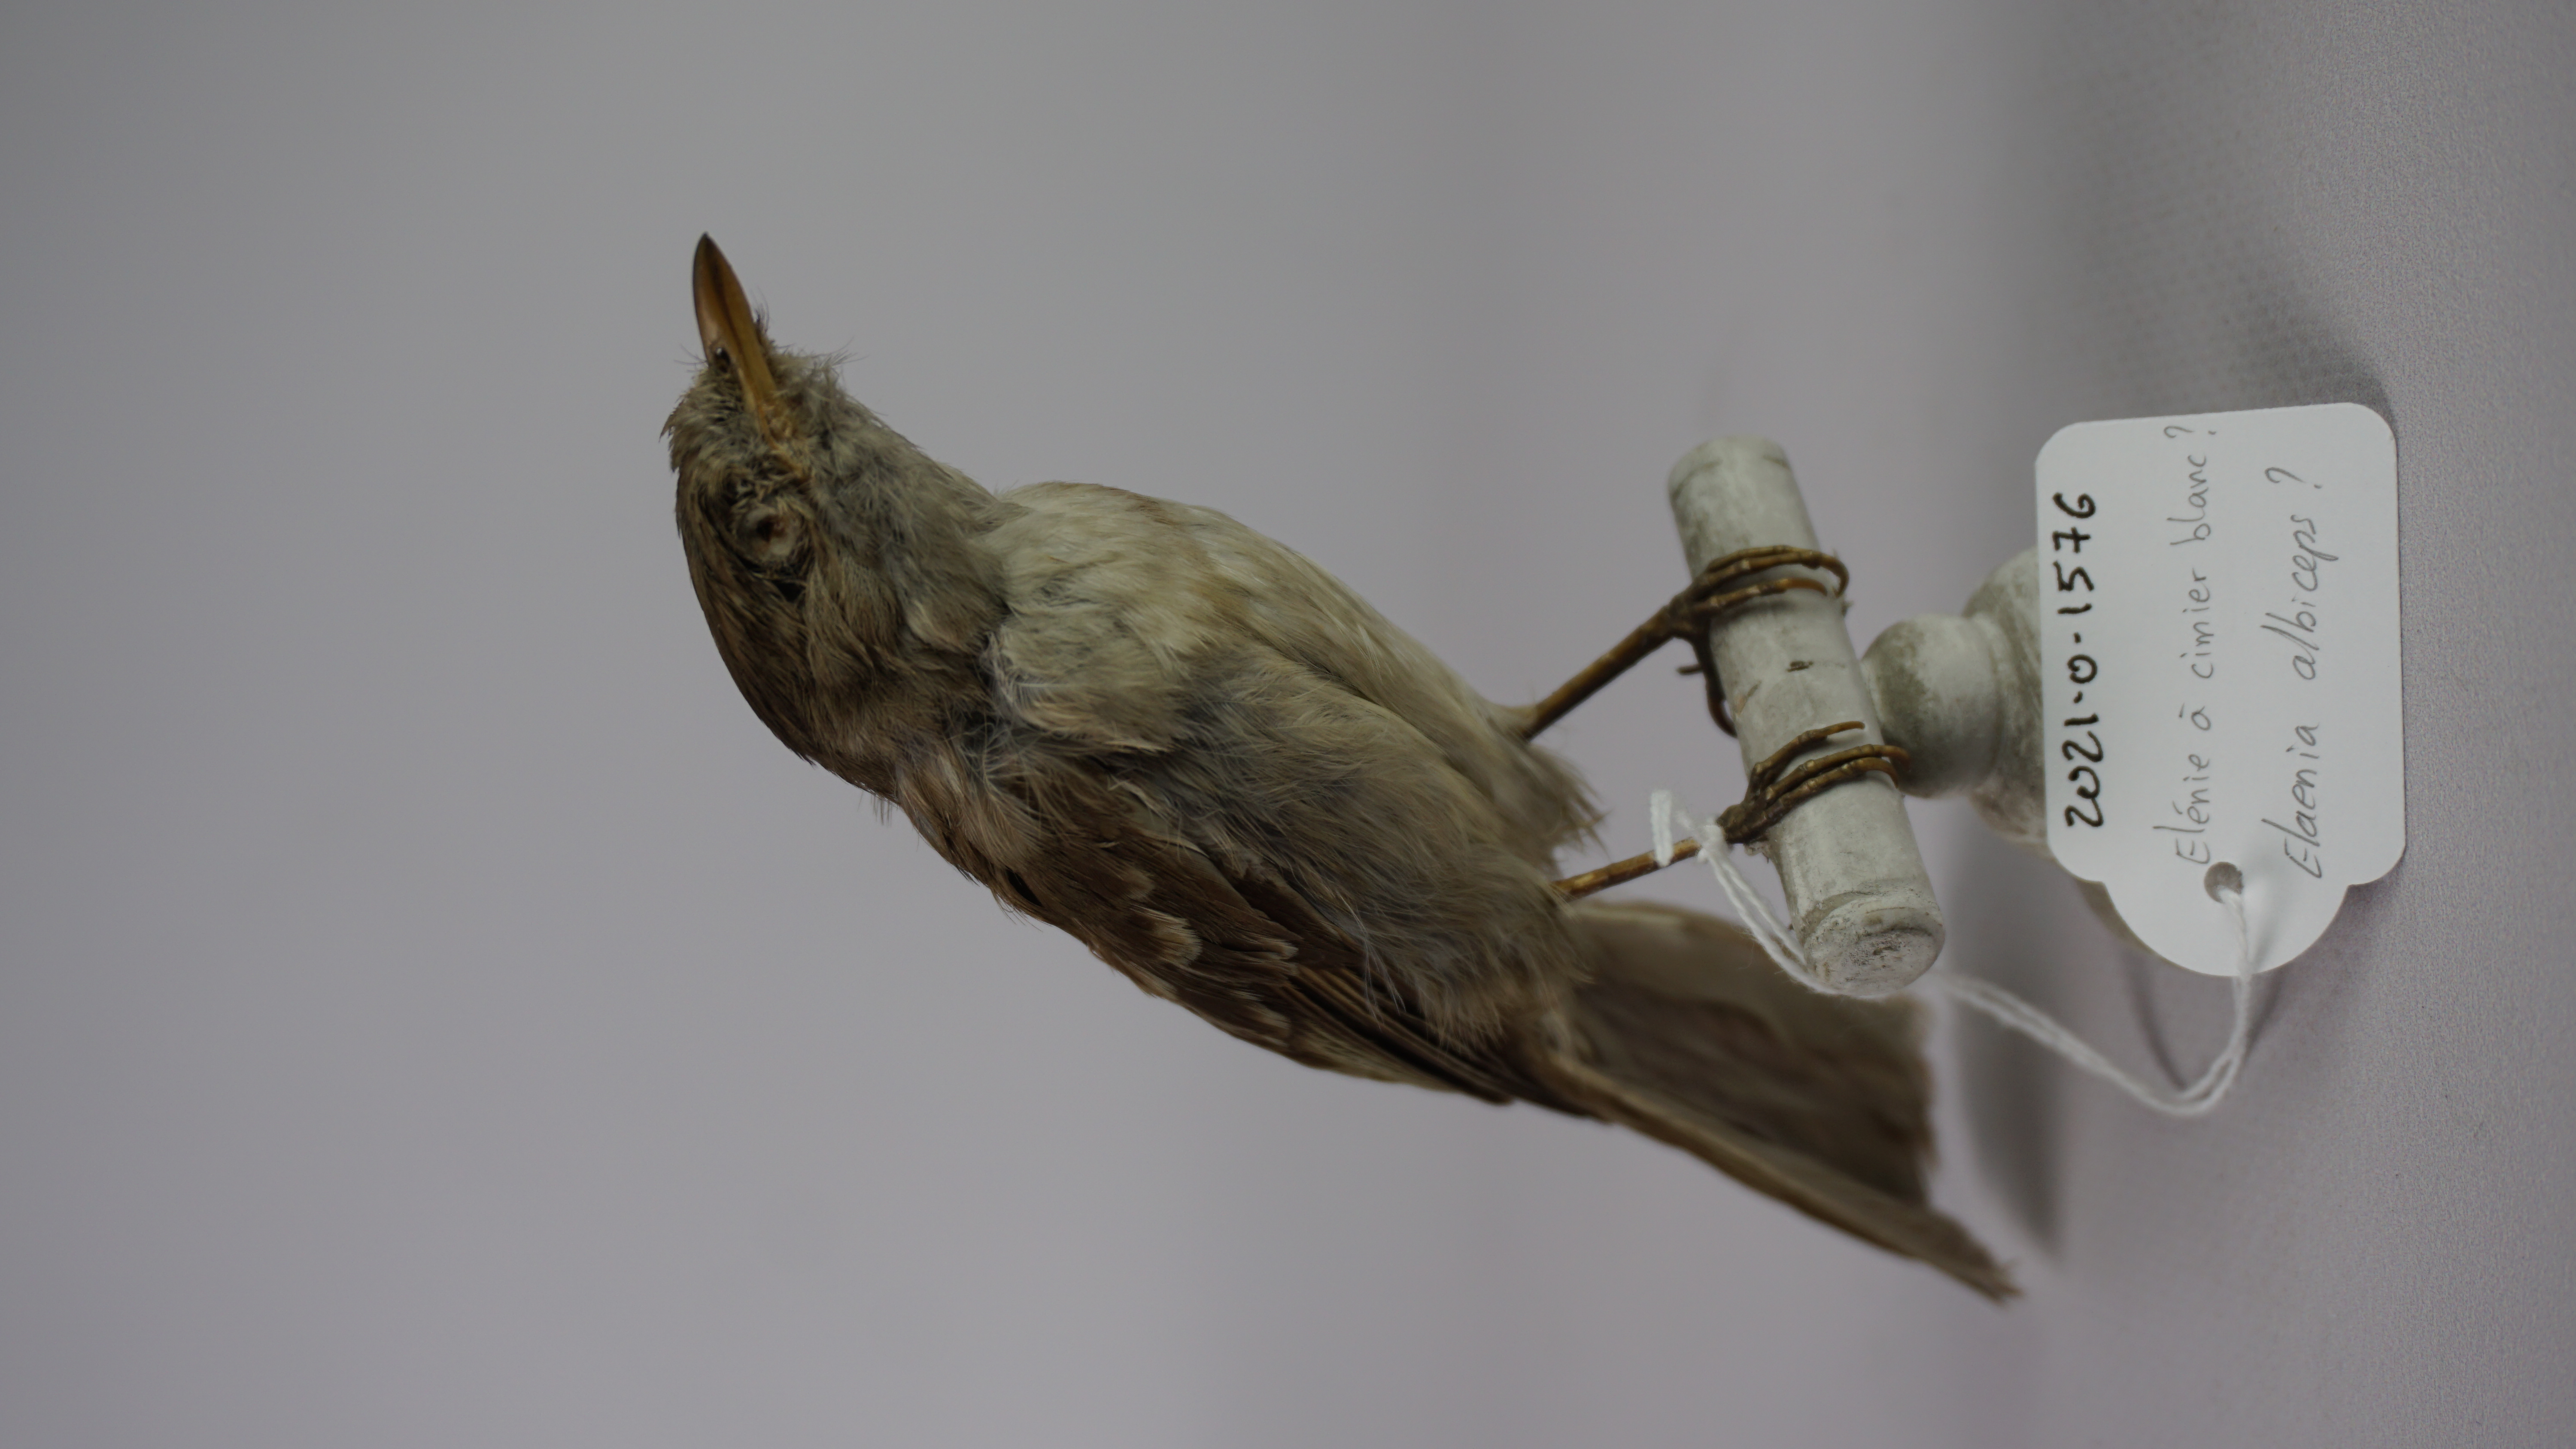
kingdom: Animalia
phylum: Chordata
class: Aves
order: Passeriformes
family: Tyrannidae
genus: Elaenia
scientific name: Elaenia albiceps
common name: White-crested elaenia
